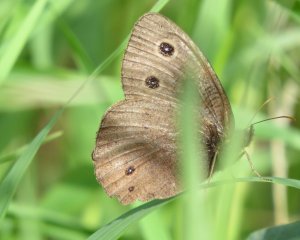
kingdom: Animalia
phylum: Arthropoda
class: Insecta
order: Lepidoptera
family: Nymphalidae
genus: Cercyonis
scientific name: Cercyonis pegala
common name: Common Wood-Nymph
